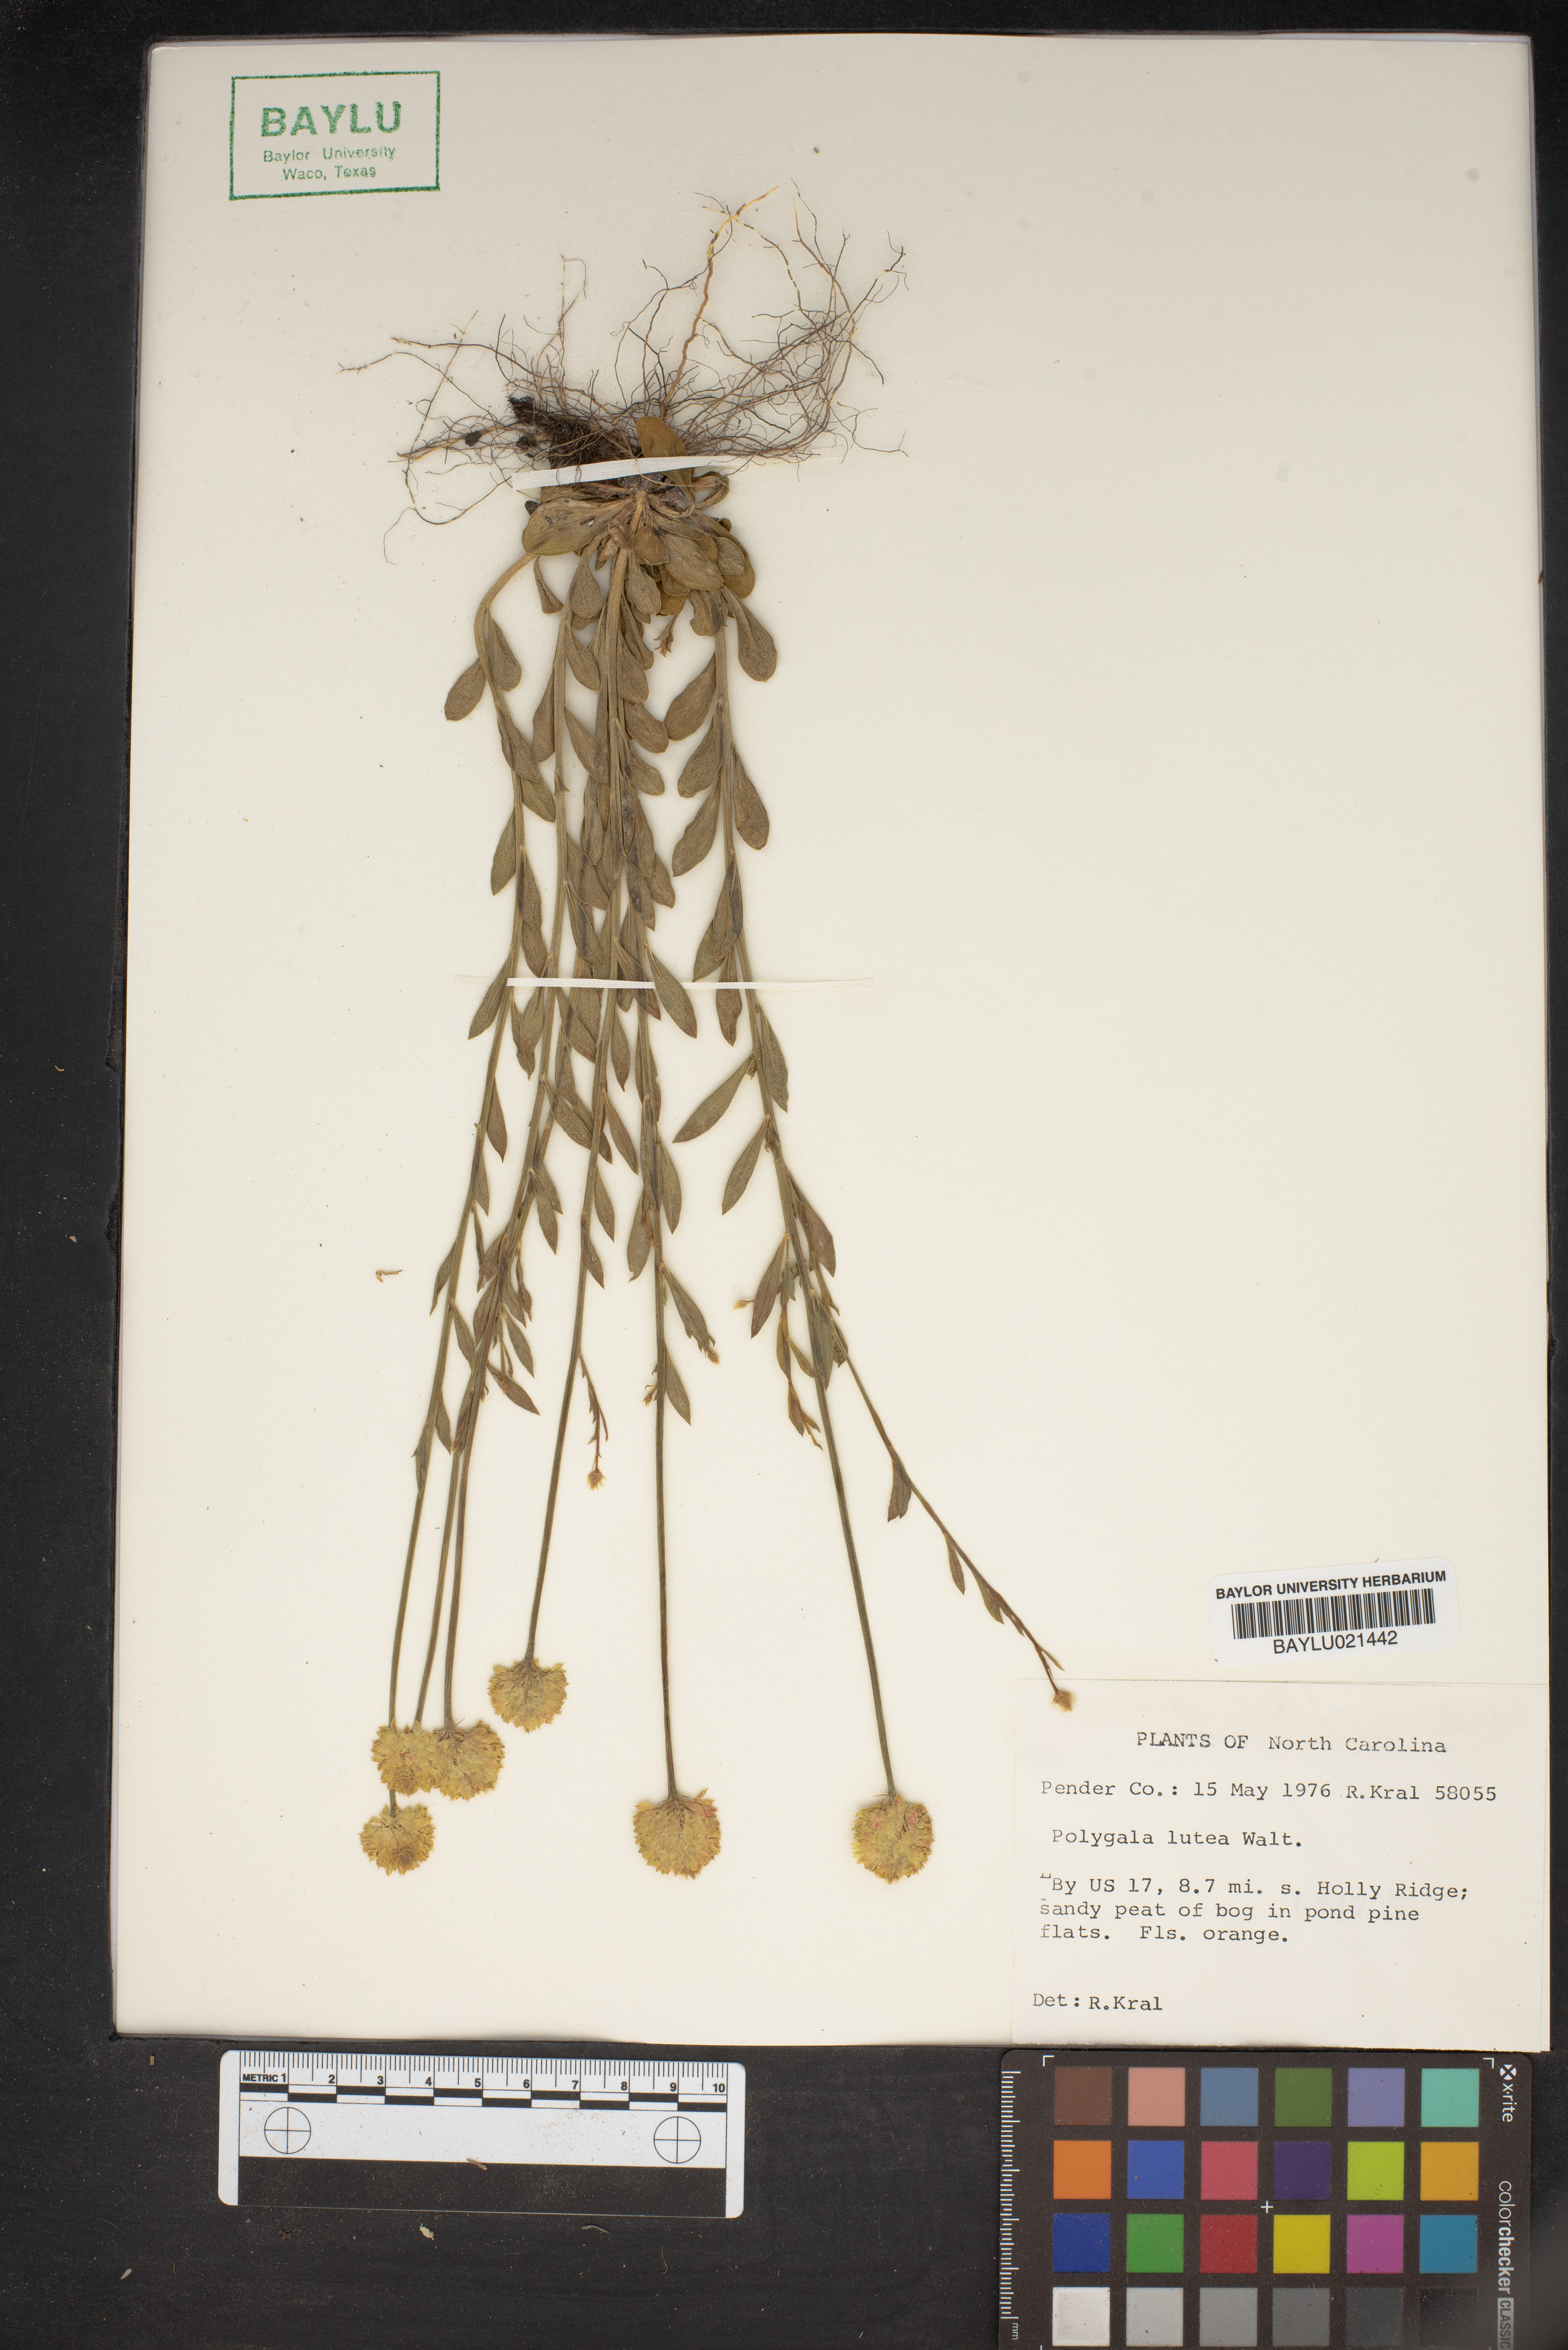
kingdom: Plantae
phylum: Tracheophyta
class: Magnoliopsida
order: Fabales
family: Polygalaceae
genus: Polygala
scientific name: Polygala lutea
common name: Orange milkwort
